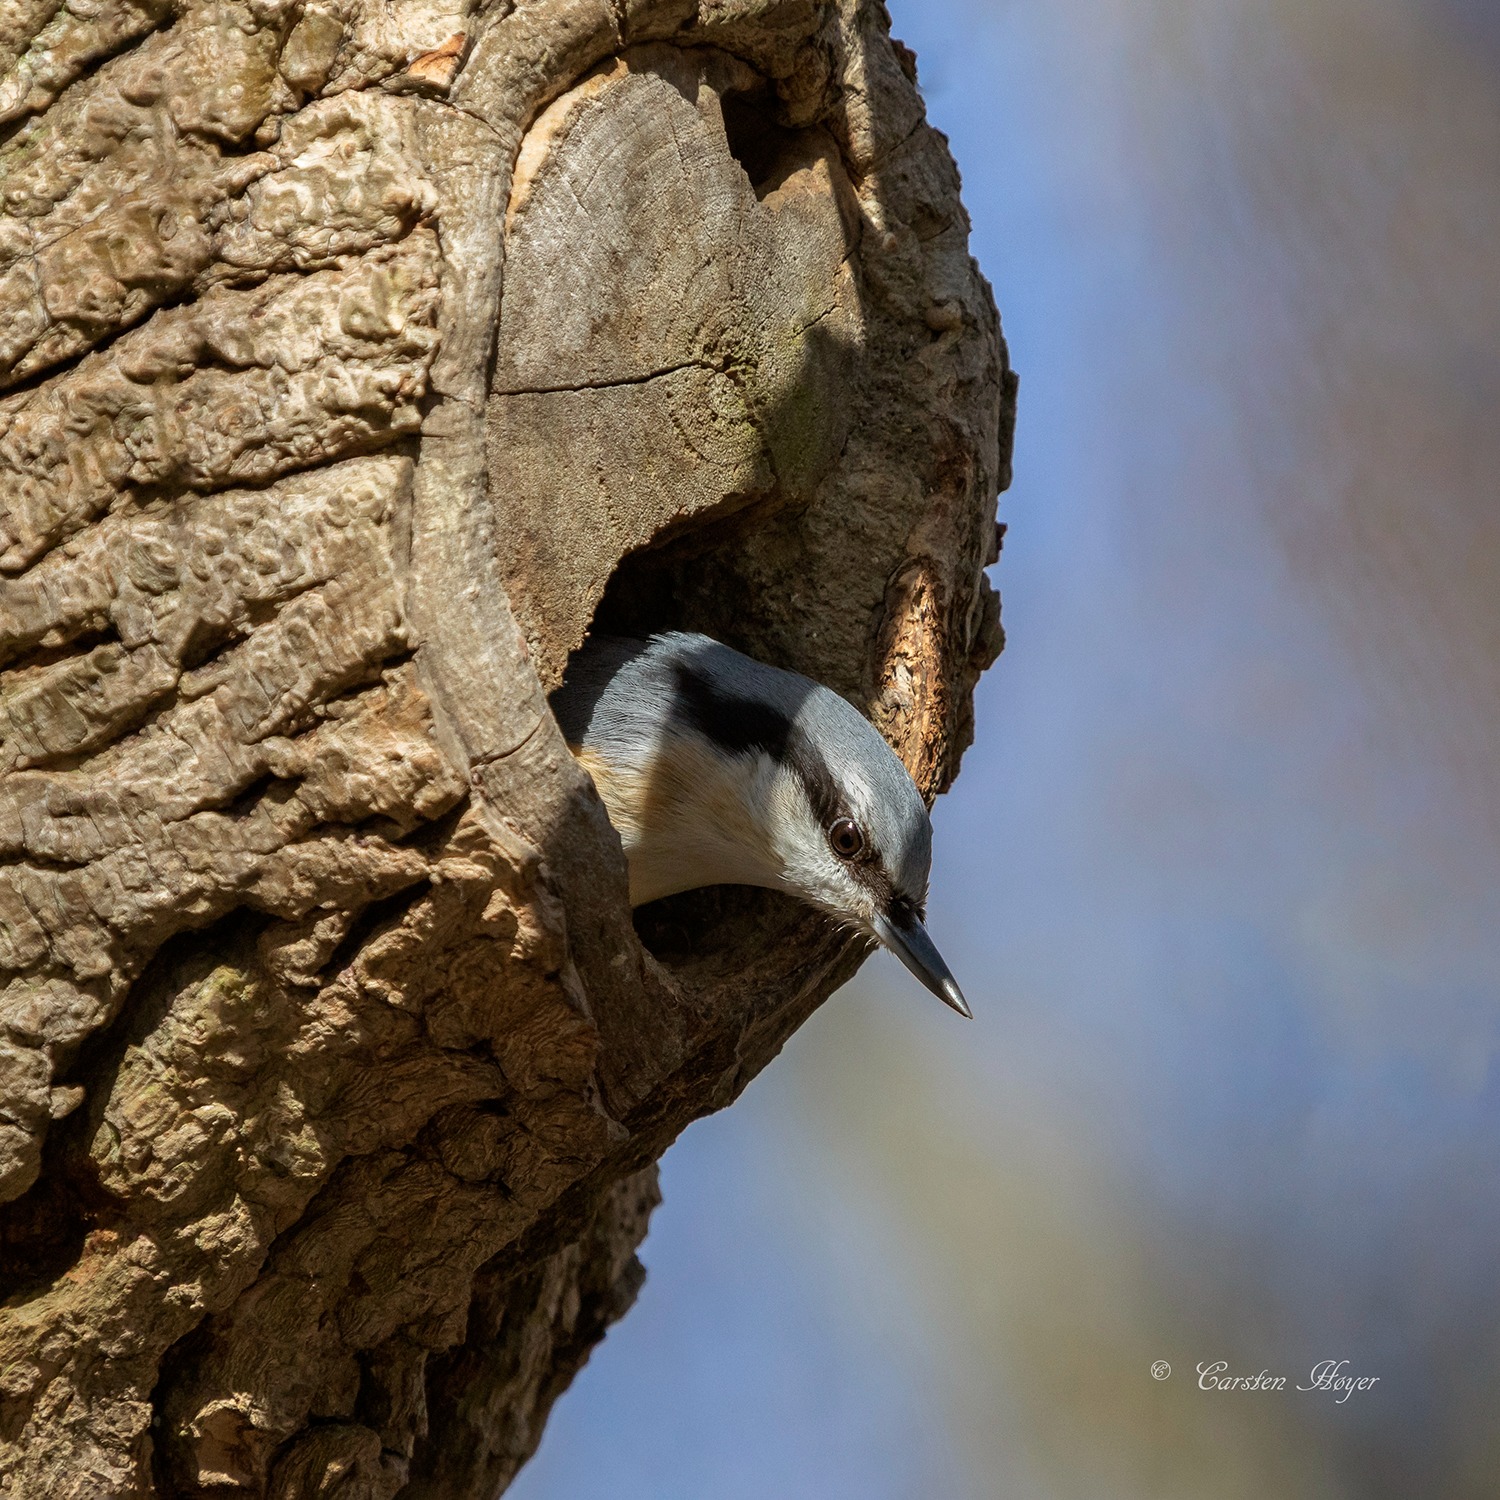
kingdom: Animalia
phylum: Chordata
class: Aves
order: Passeriformes
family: Sittidae
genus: Sitta
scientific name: Sitta europaea
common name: Spætmejse
